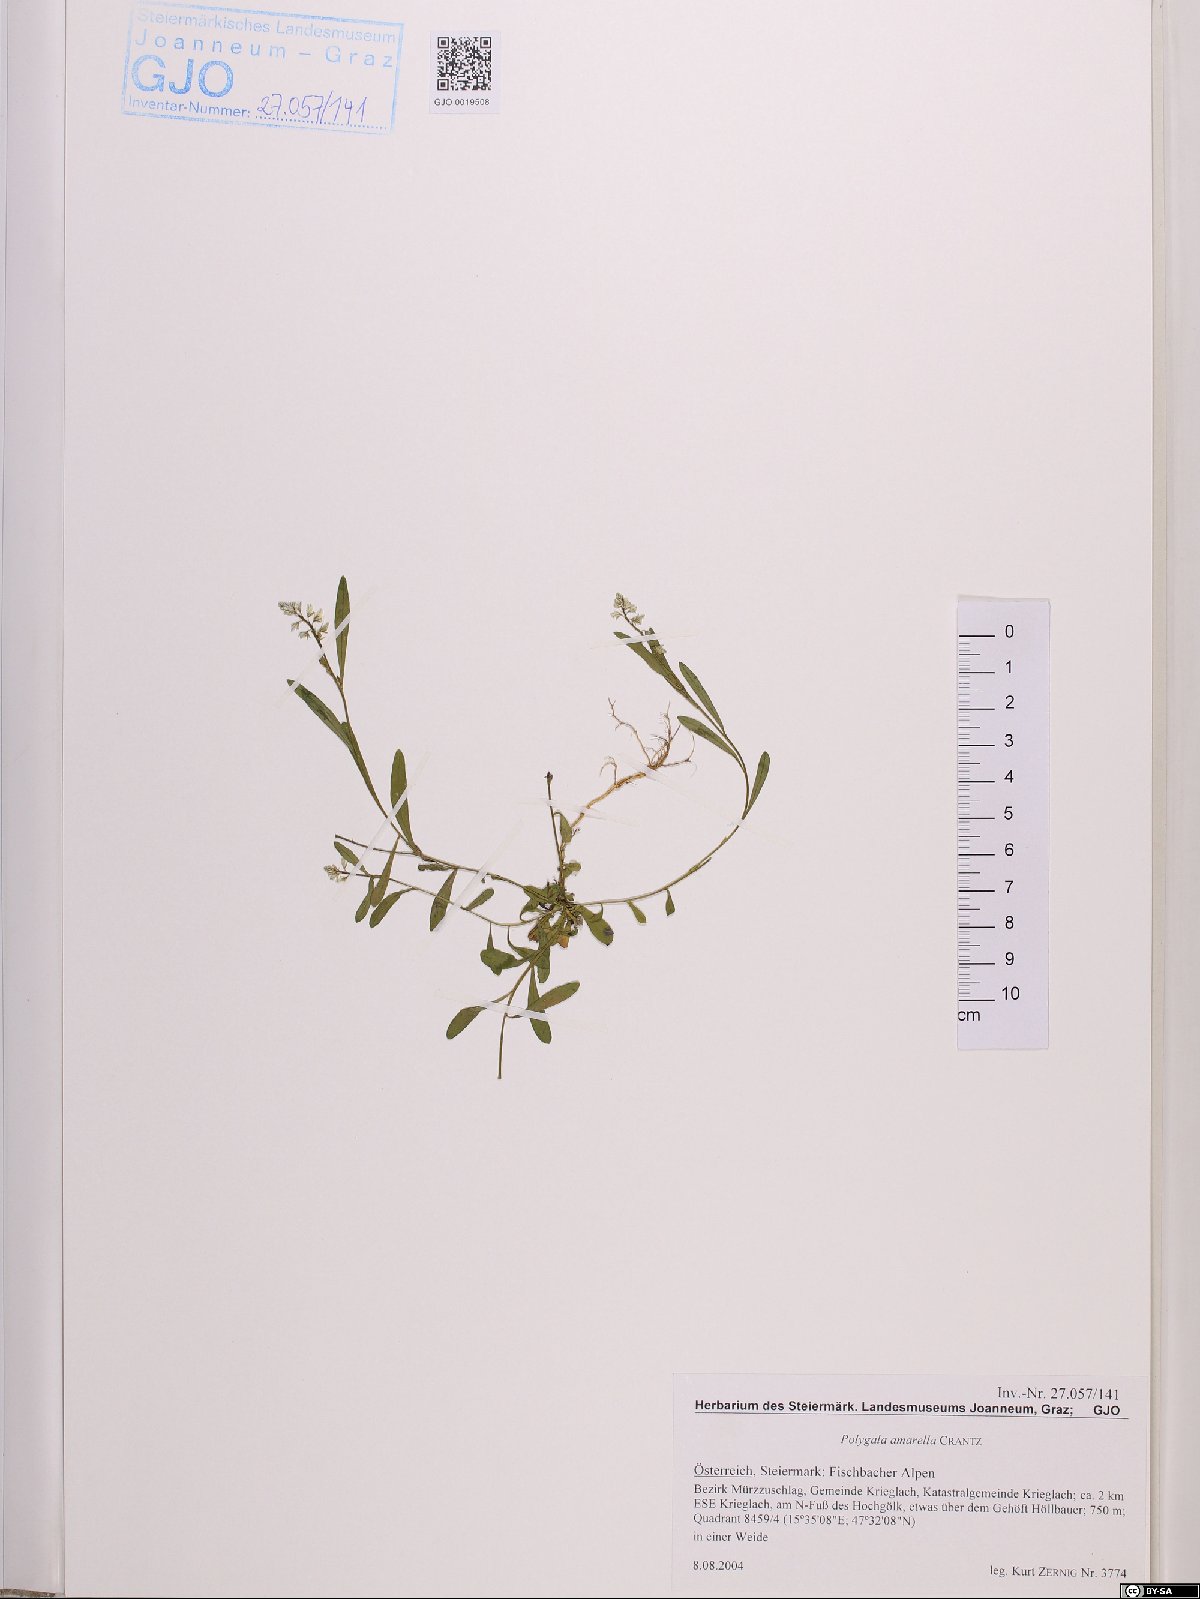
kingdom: Plantae
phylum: Tracheophyta
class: Magnoliopsida
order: Fabales
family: Polygalaceae
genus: Polygala
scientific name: Polygala amarella
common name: Dwarf milkwort
